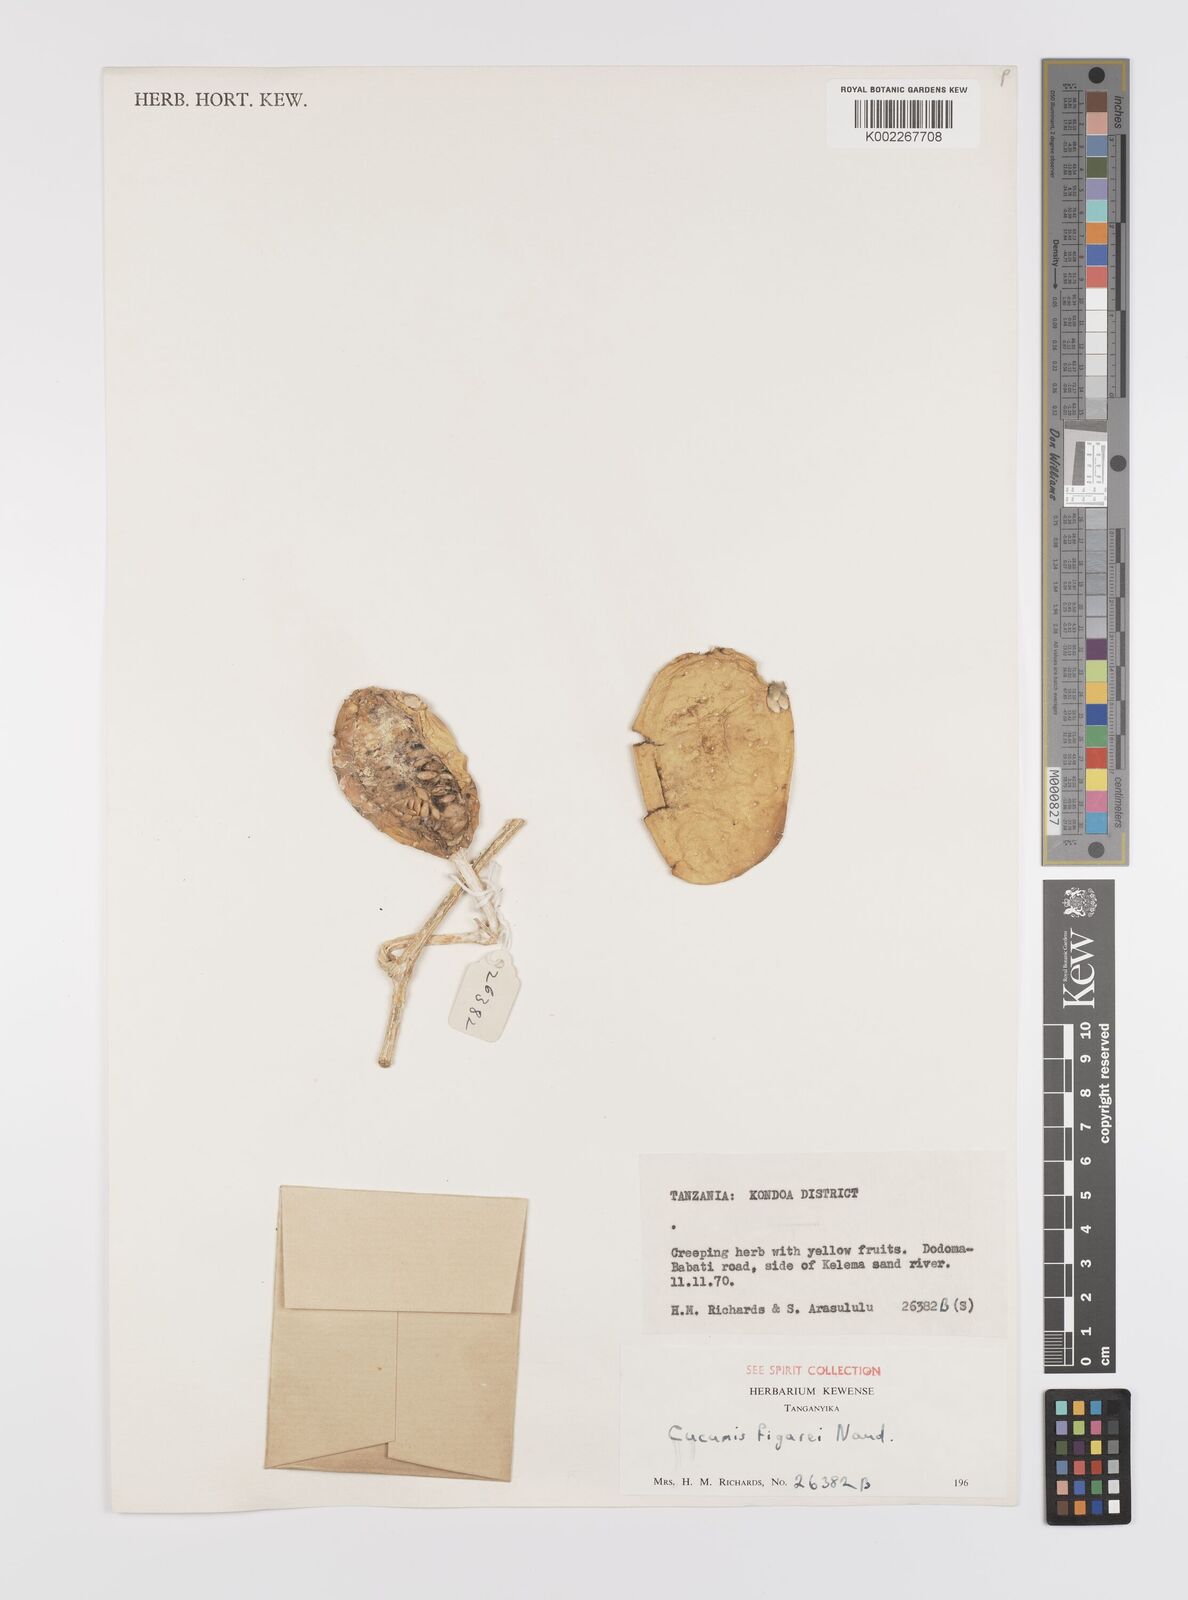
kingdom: Plantae
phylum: Tracheophyta
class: Magnoliopsida
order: Cucurbitales
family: Cucurbitaceae
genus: Cucumis
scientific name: Cucumis pustulatus
